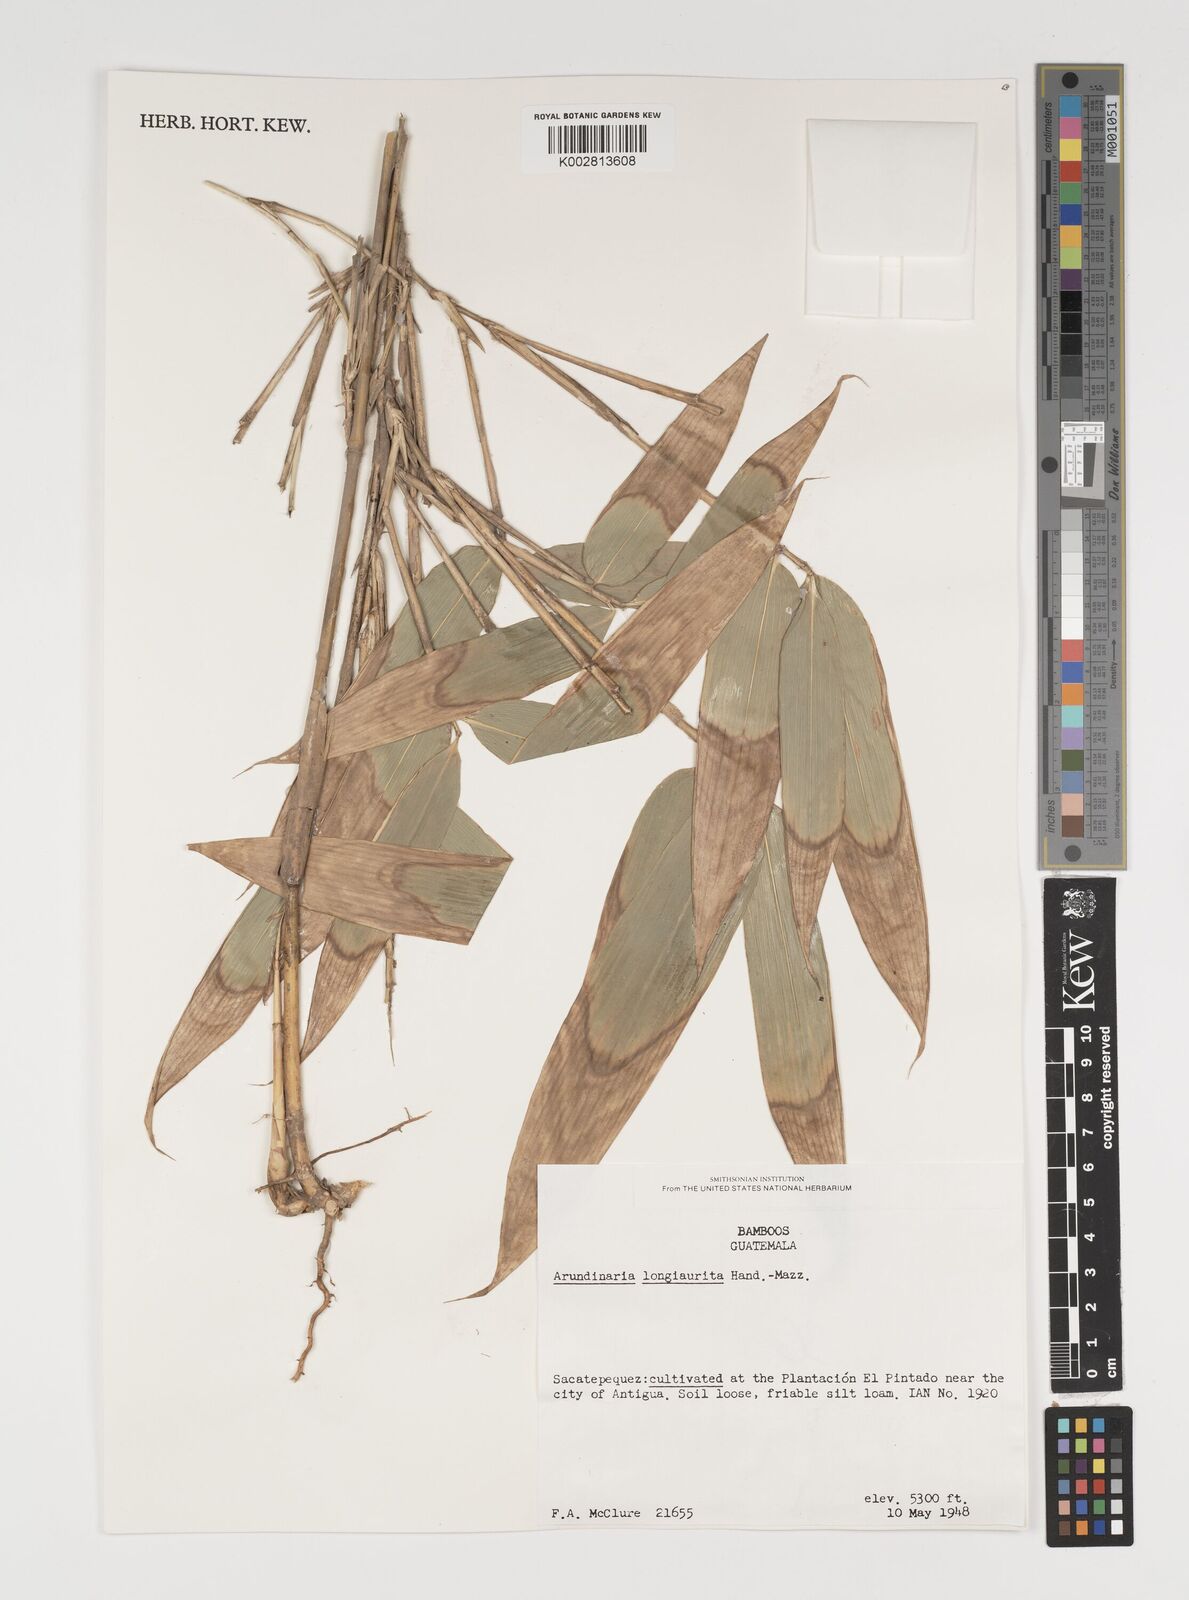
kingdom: Plantae
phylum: Tracheophyta
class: Liliopsida
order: Poales
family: Poaceae
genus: Indocalamus
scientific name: Indocalamus longiauritus
